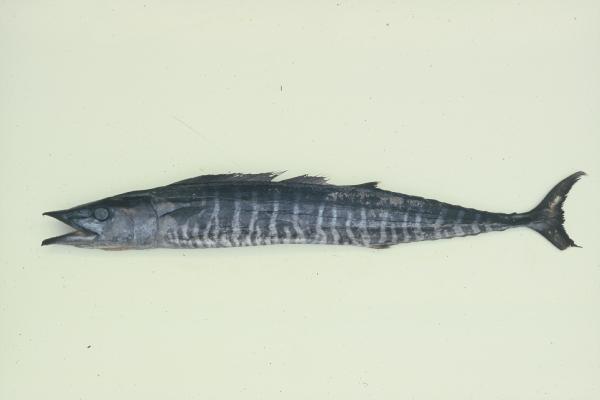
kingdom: Animalia
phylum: Chordata
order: Perciformes
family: Scombridae
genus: Acanthocybium
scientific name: Acanthocybium solandri
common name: Wahoo
